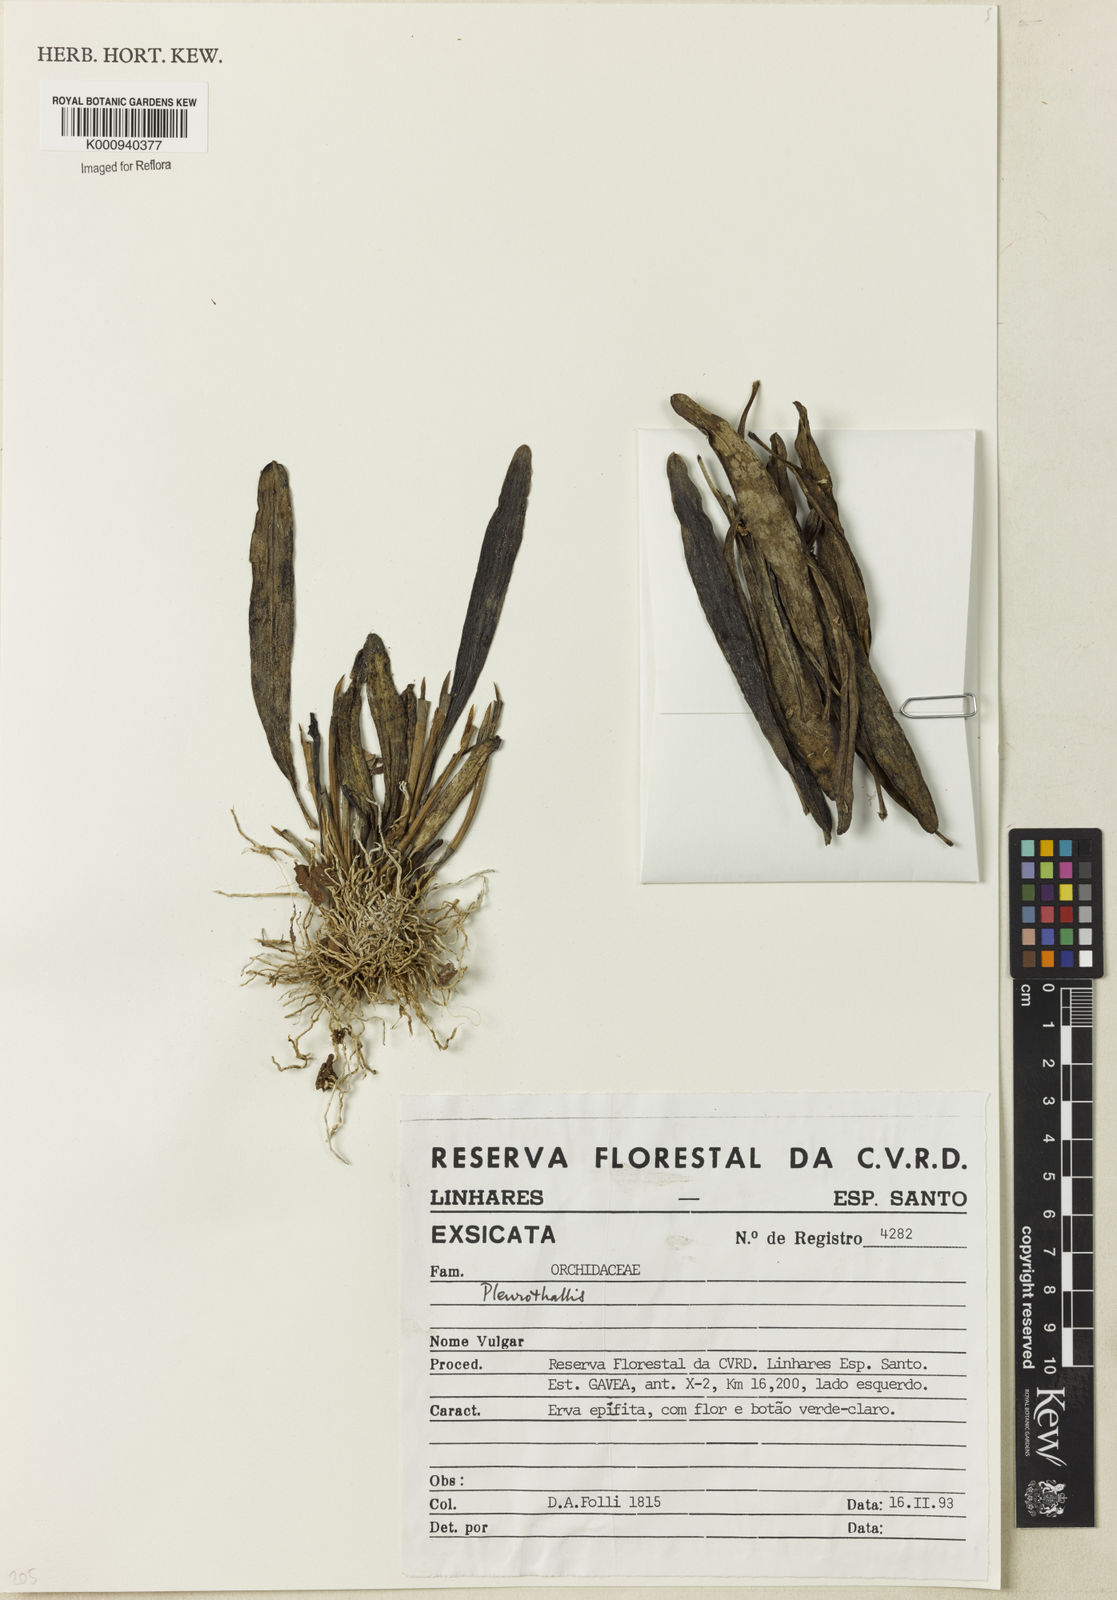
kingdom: Plantae
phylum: Tracheophyta
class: Liliopsida
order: Asparagales
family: Orchidaceae
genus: Pleurothallis
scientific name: Pleurothallis
